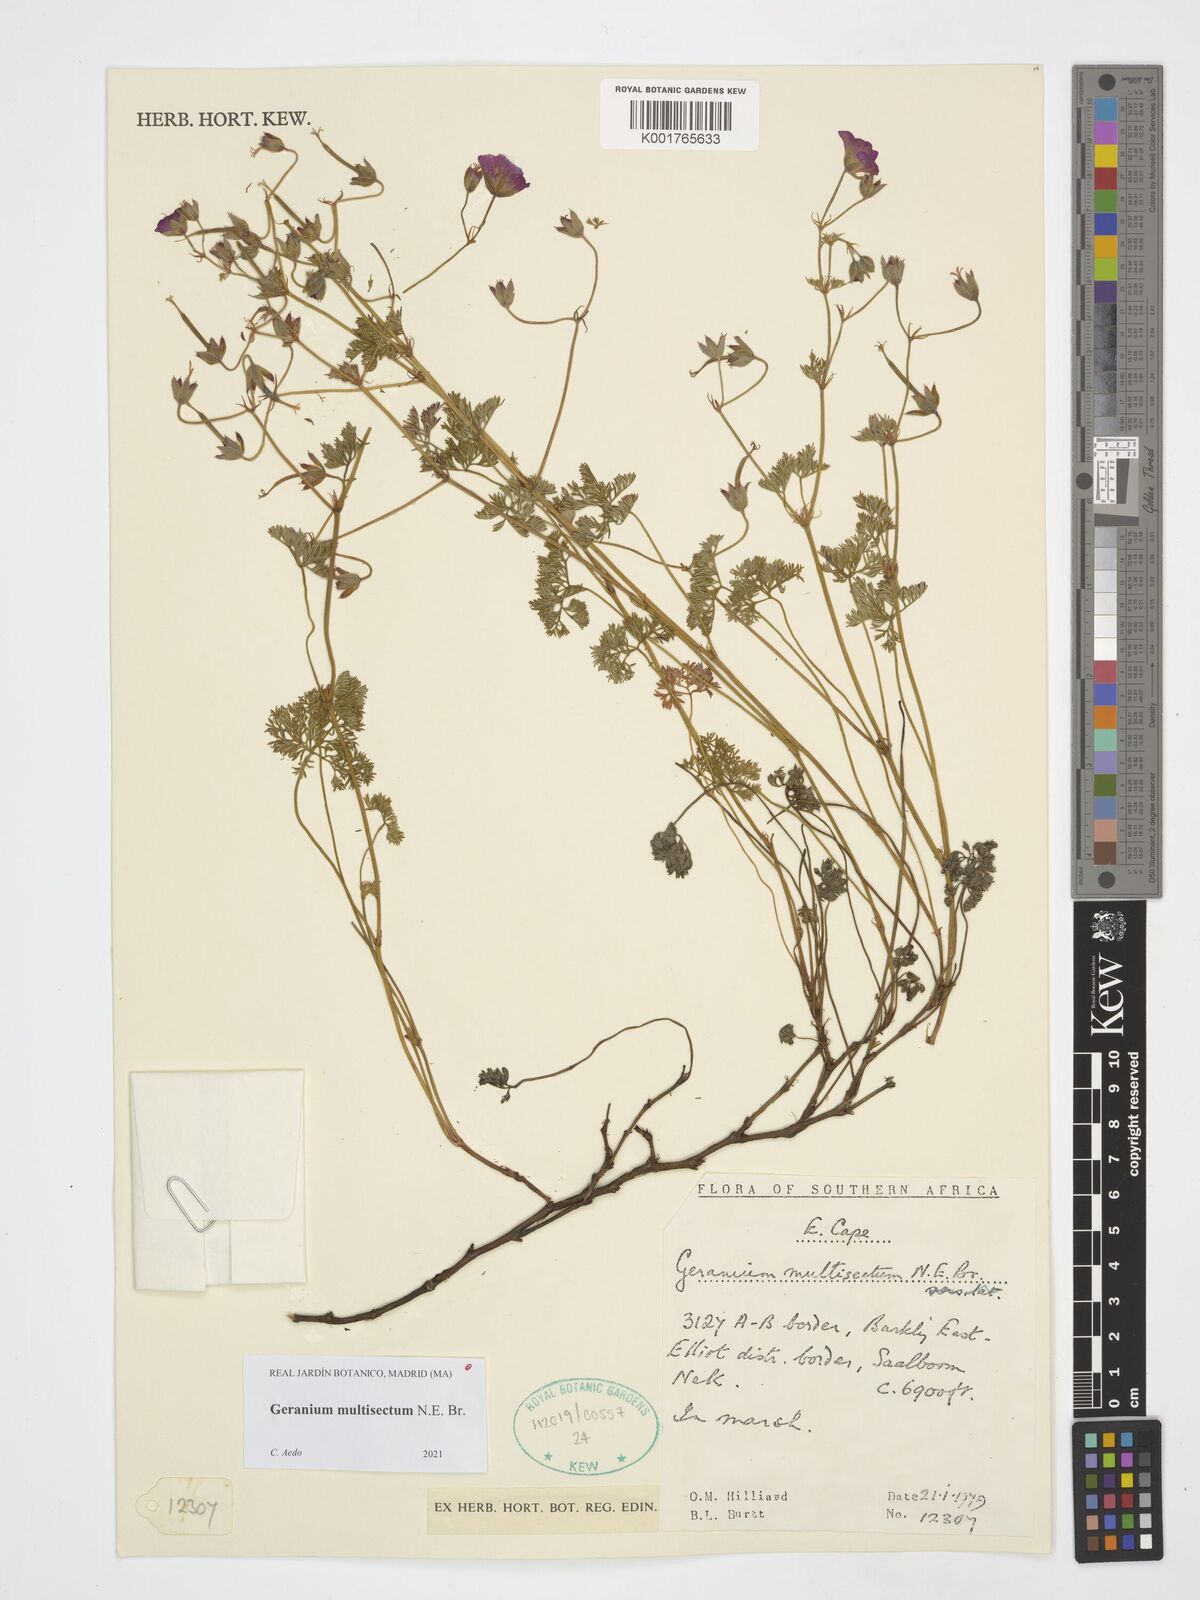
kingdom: Plantae
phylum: Tracheophyta
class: Magnoliopsida
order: Geraniales
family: Geraniaceae
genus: Geranium
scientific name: Geranium multisectum
